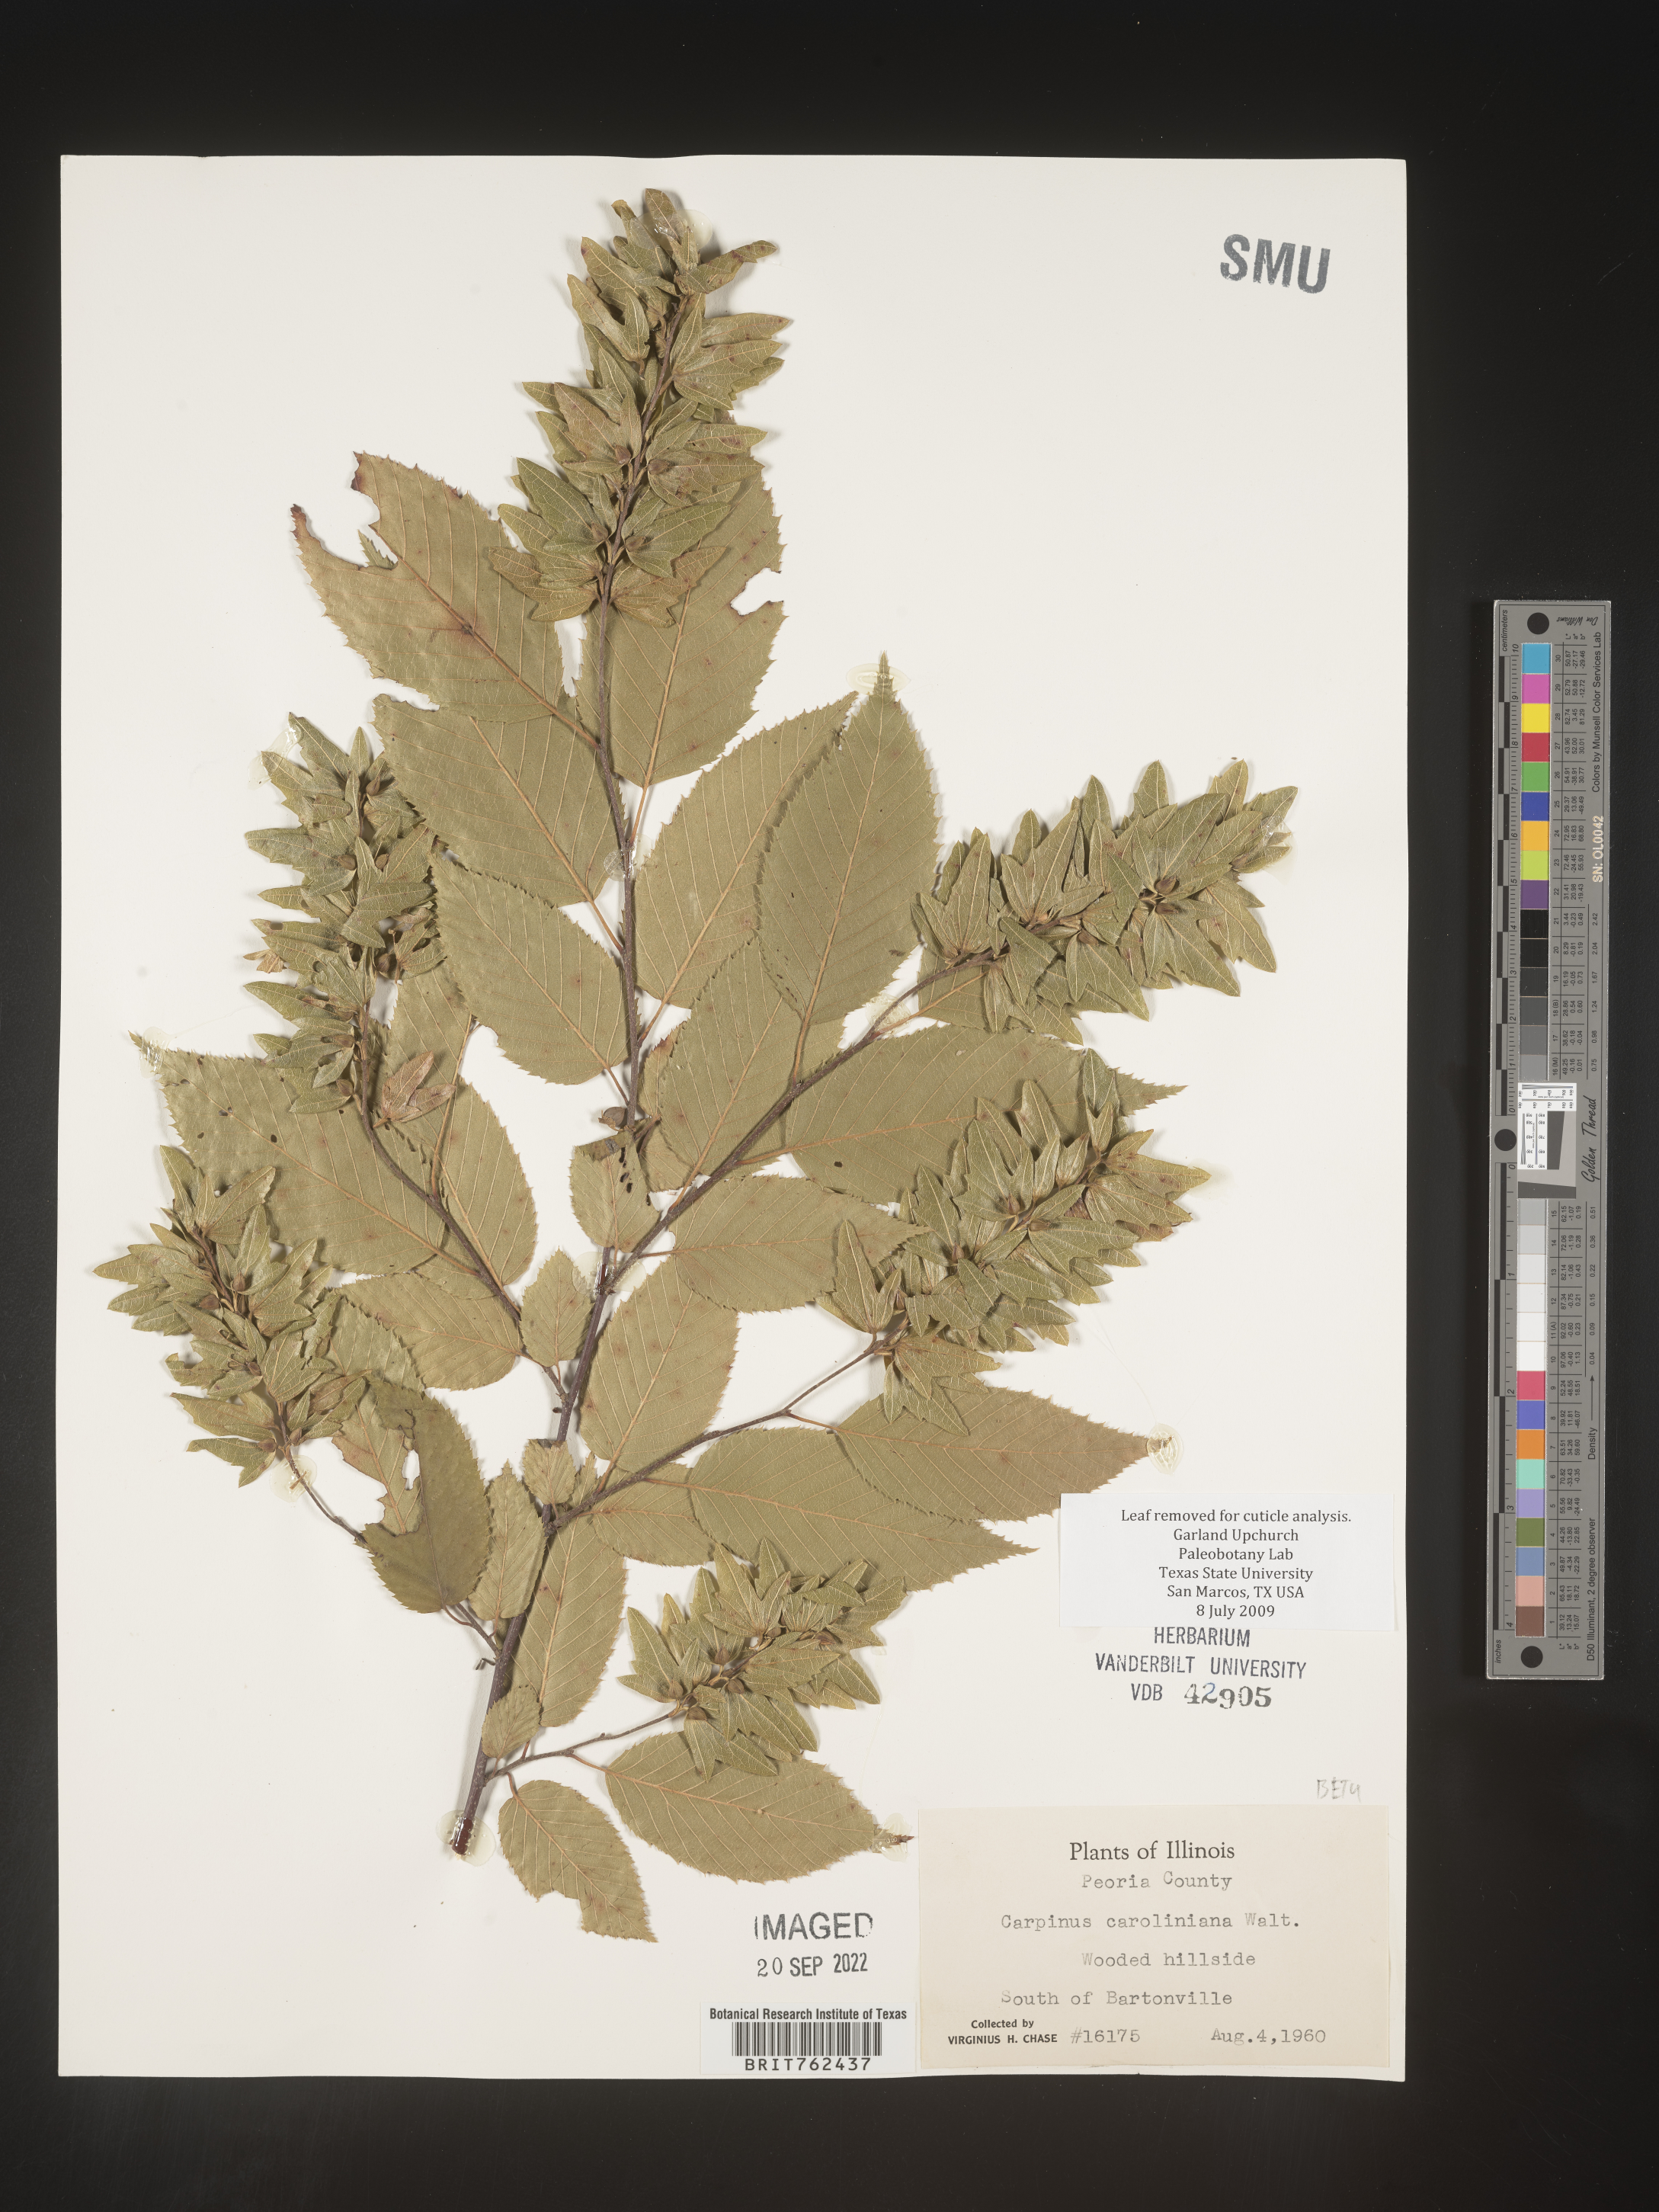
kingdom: Plantae
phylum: Tracheophyta
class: Magnoliopsida
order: Fagales
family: Betulaceae
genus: Carpinus
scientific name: Carpinus caroliniana
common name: American hornbeam
